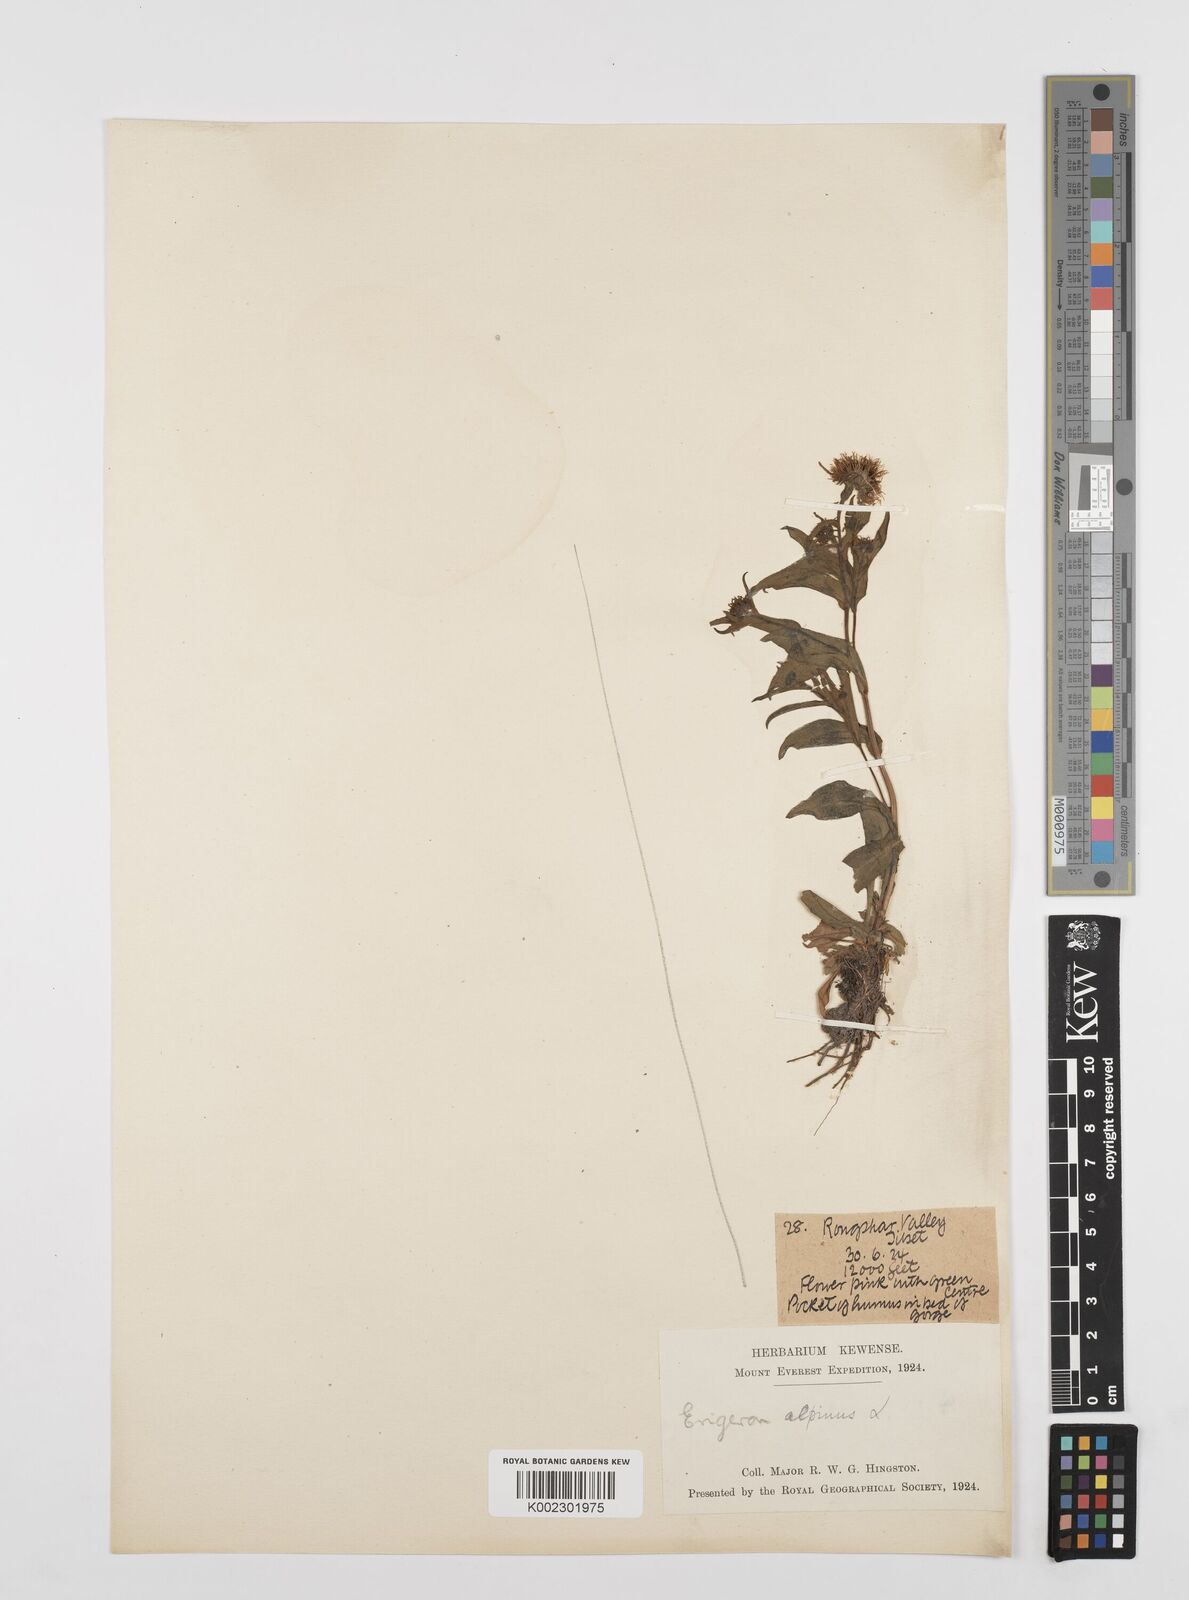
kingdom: Plantae
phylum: Tracheophyta
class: Magnoliopsida
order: Asterales
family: Asteraceae
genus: Erigeron
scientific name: Erigeron alpinus
